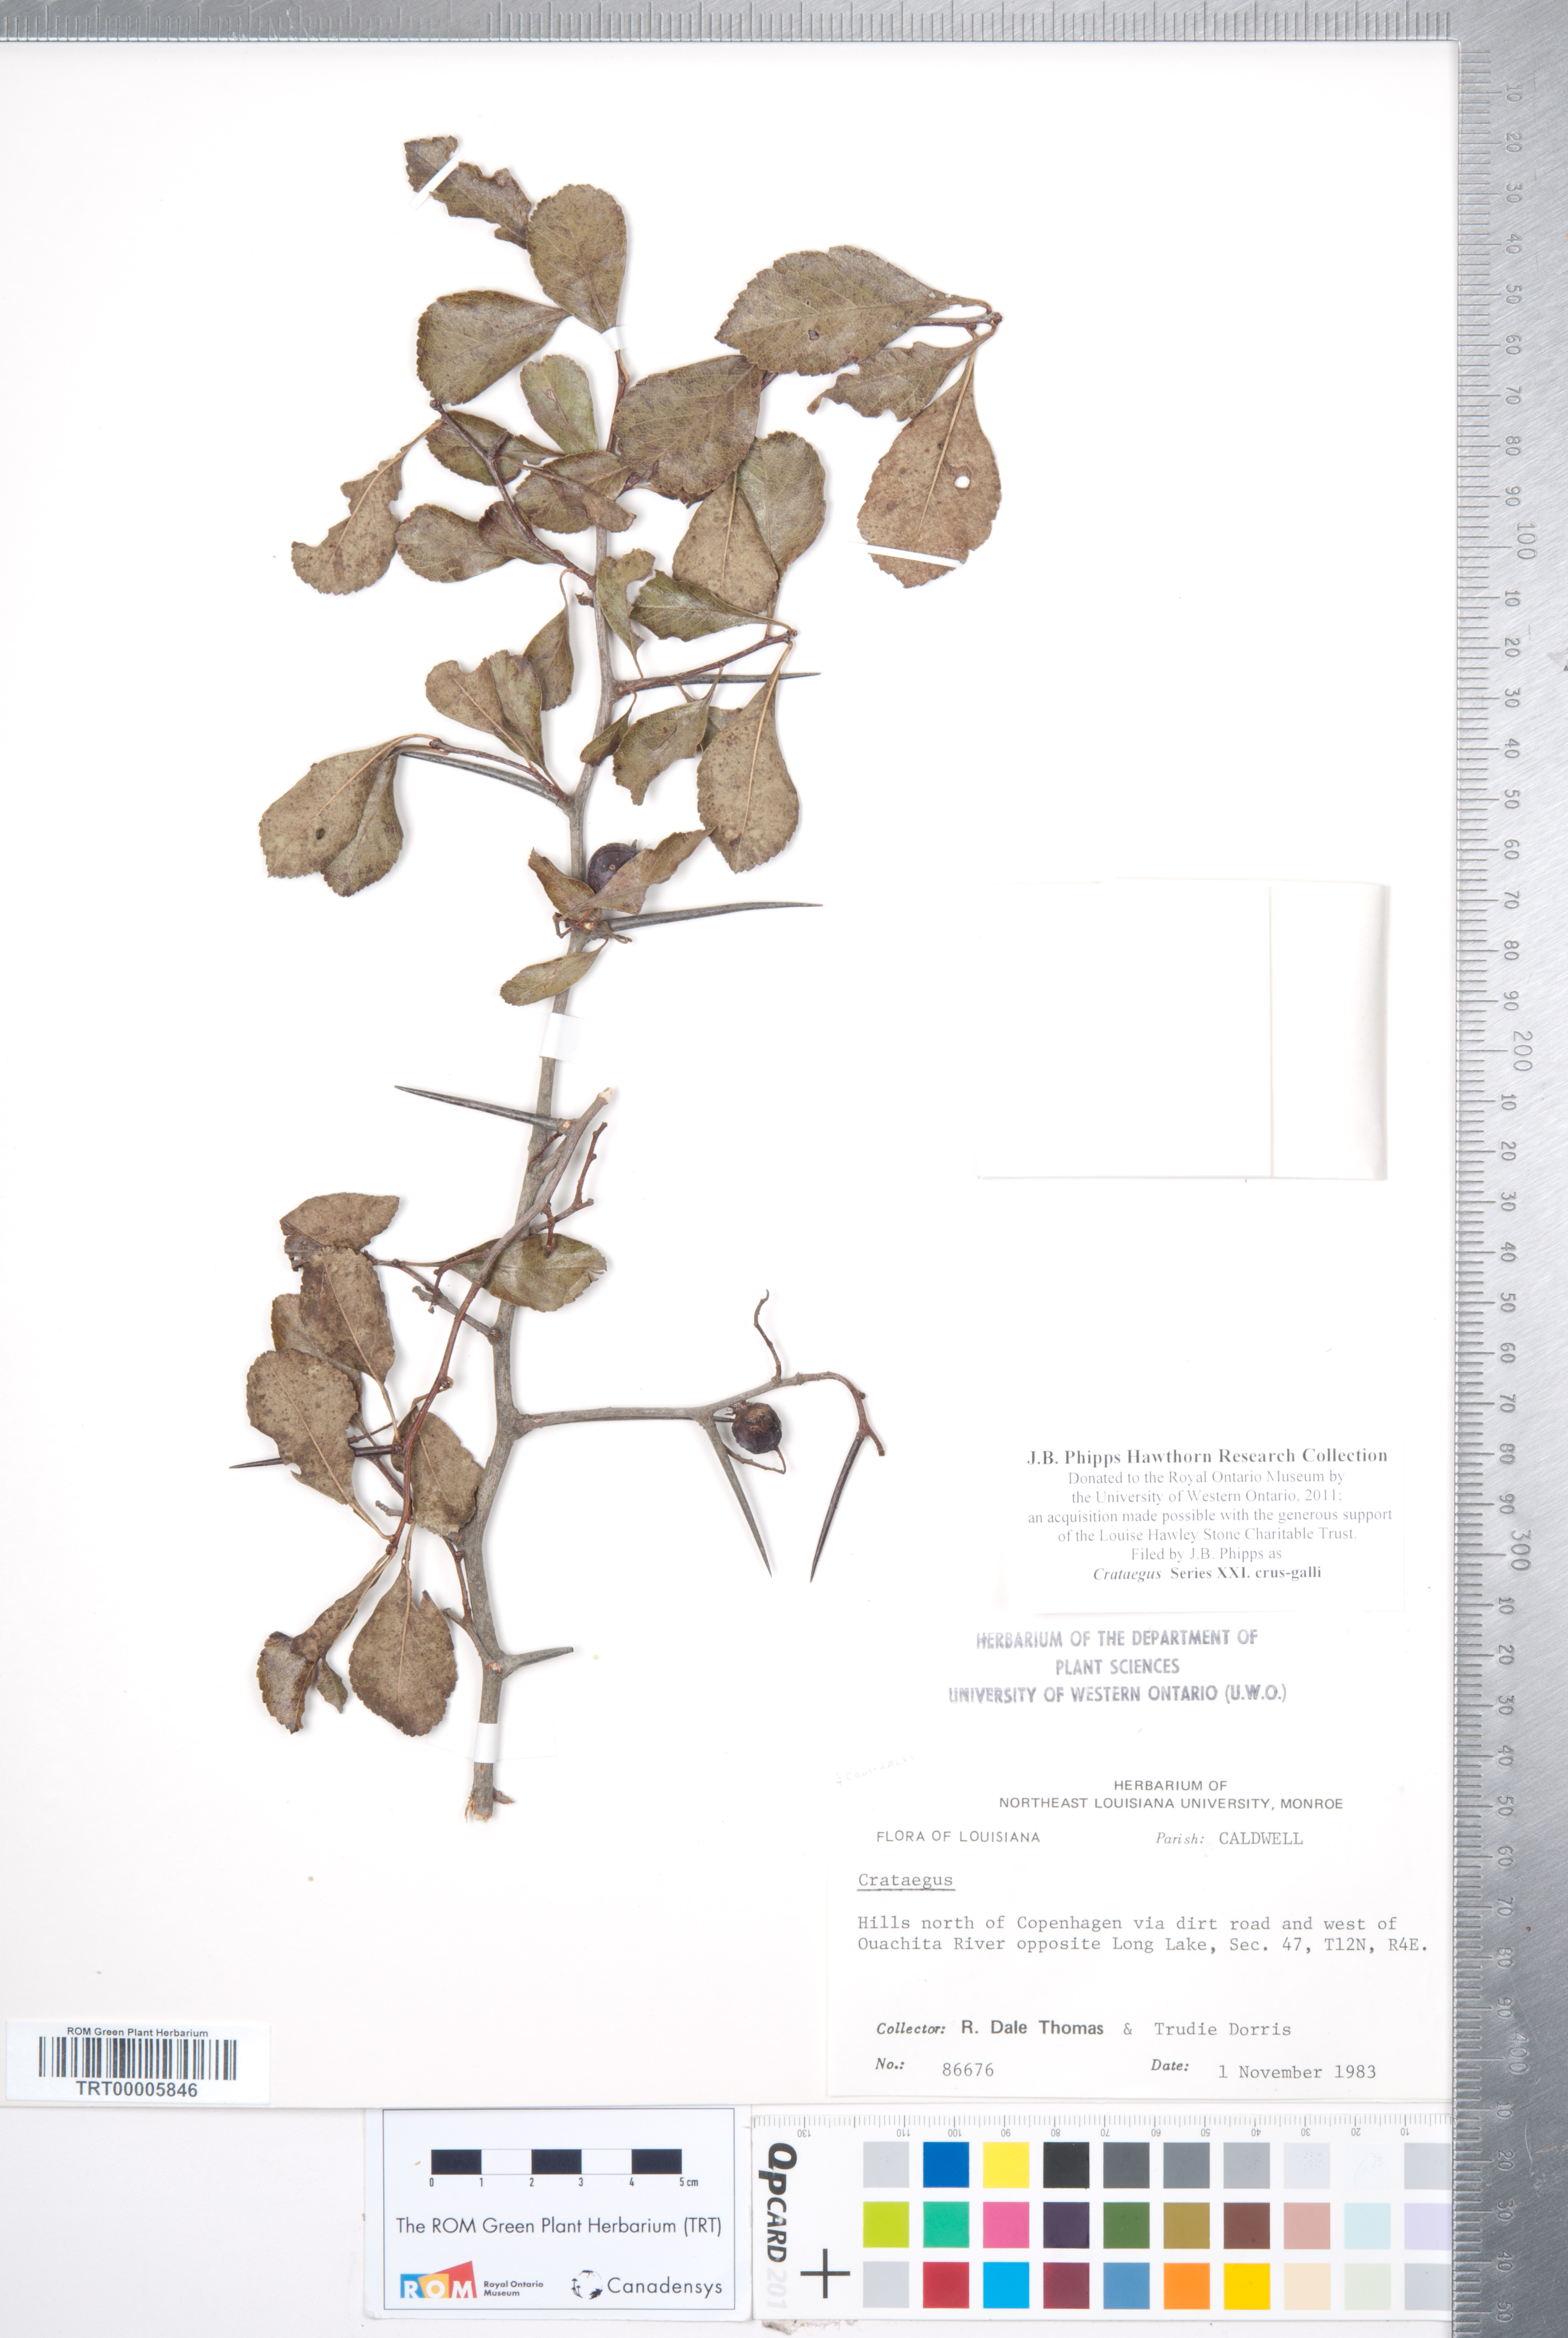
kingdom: Plantae
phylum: Tracheophyta
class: Magnoliopsida
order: Rosales
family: Rosaceae
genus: Crataegus
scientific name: Crataegus
